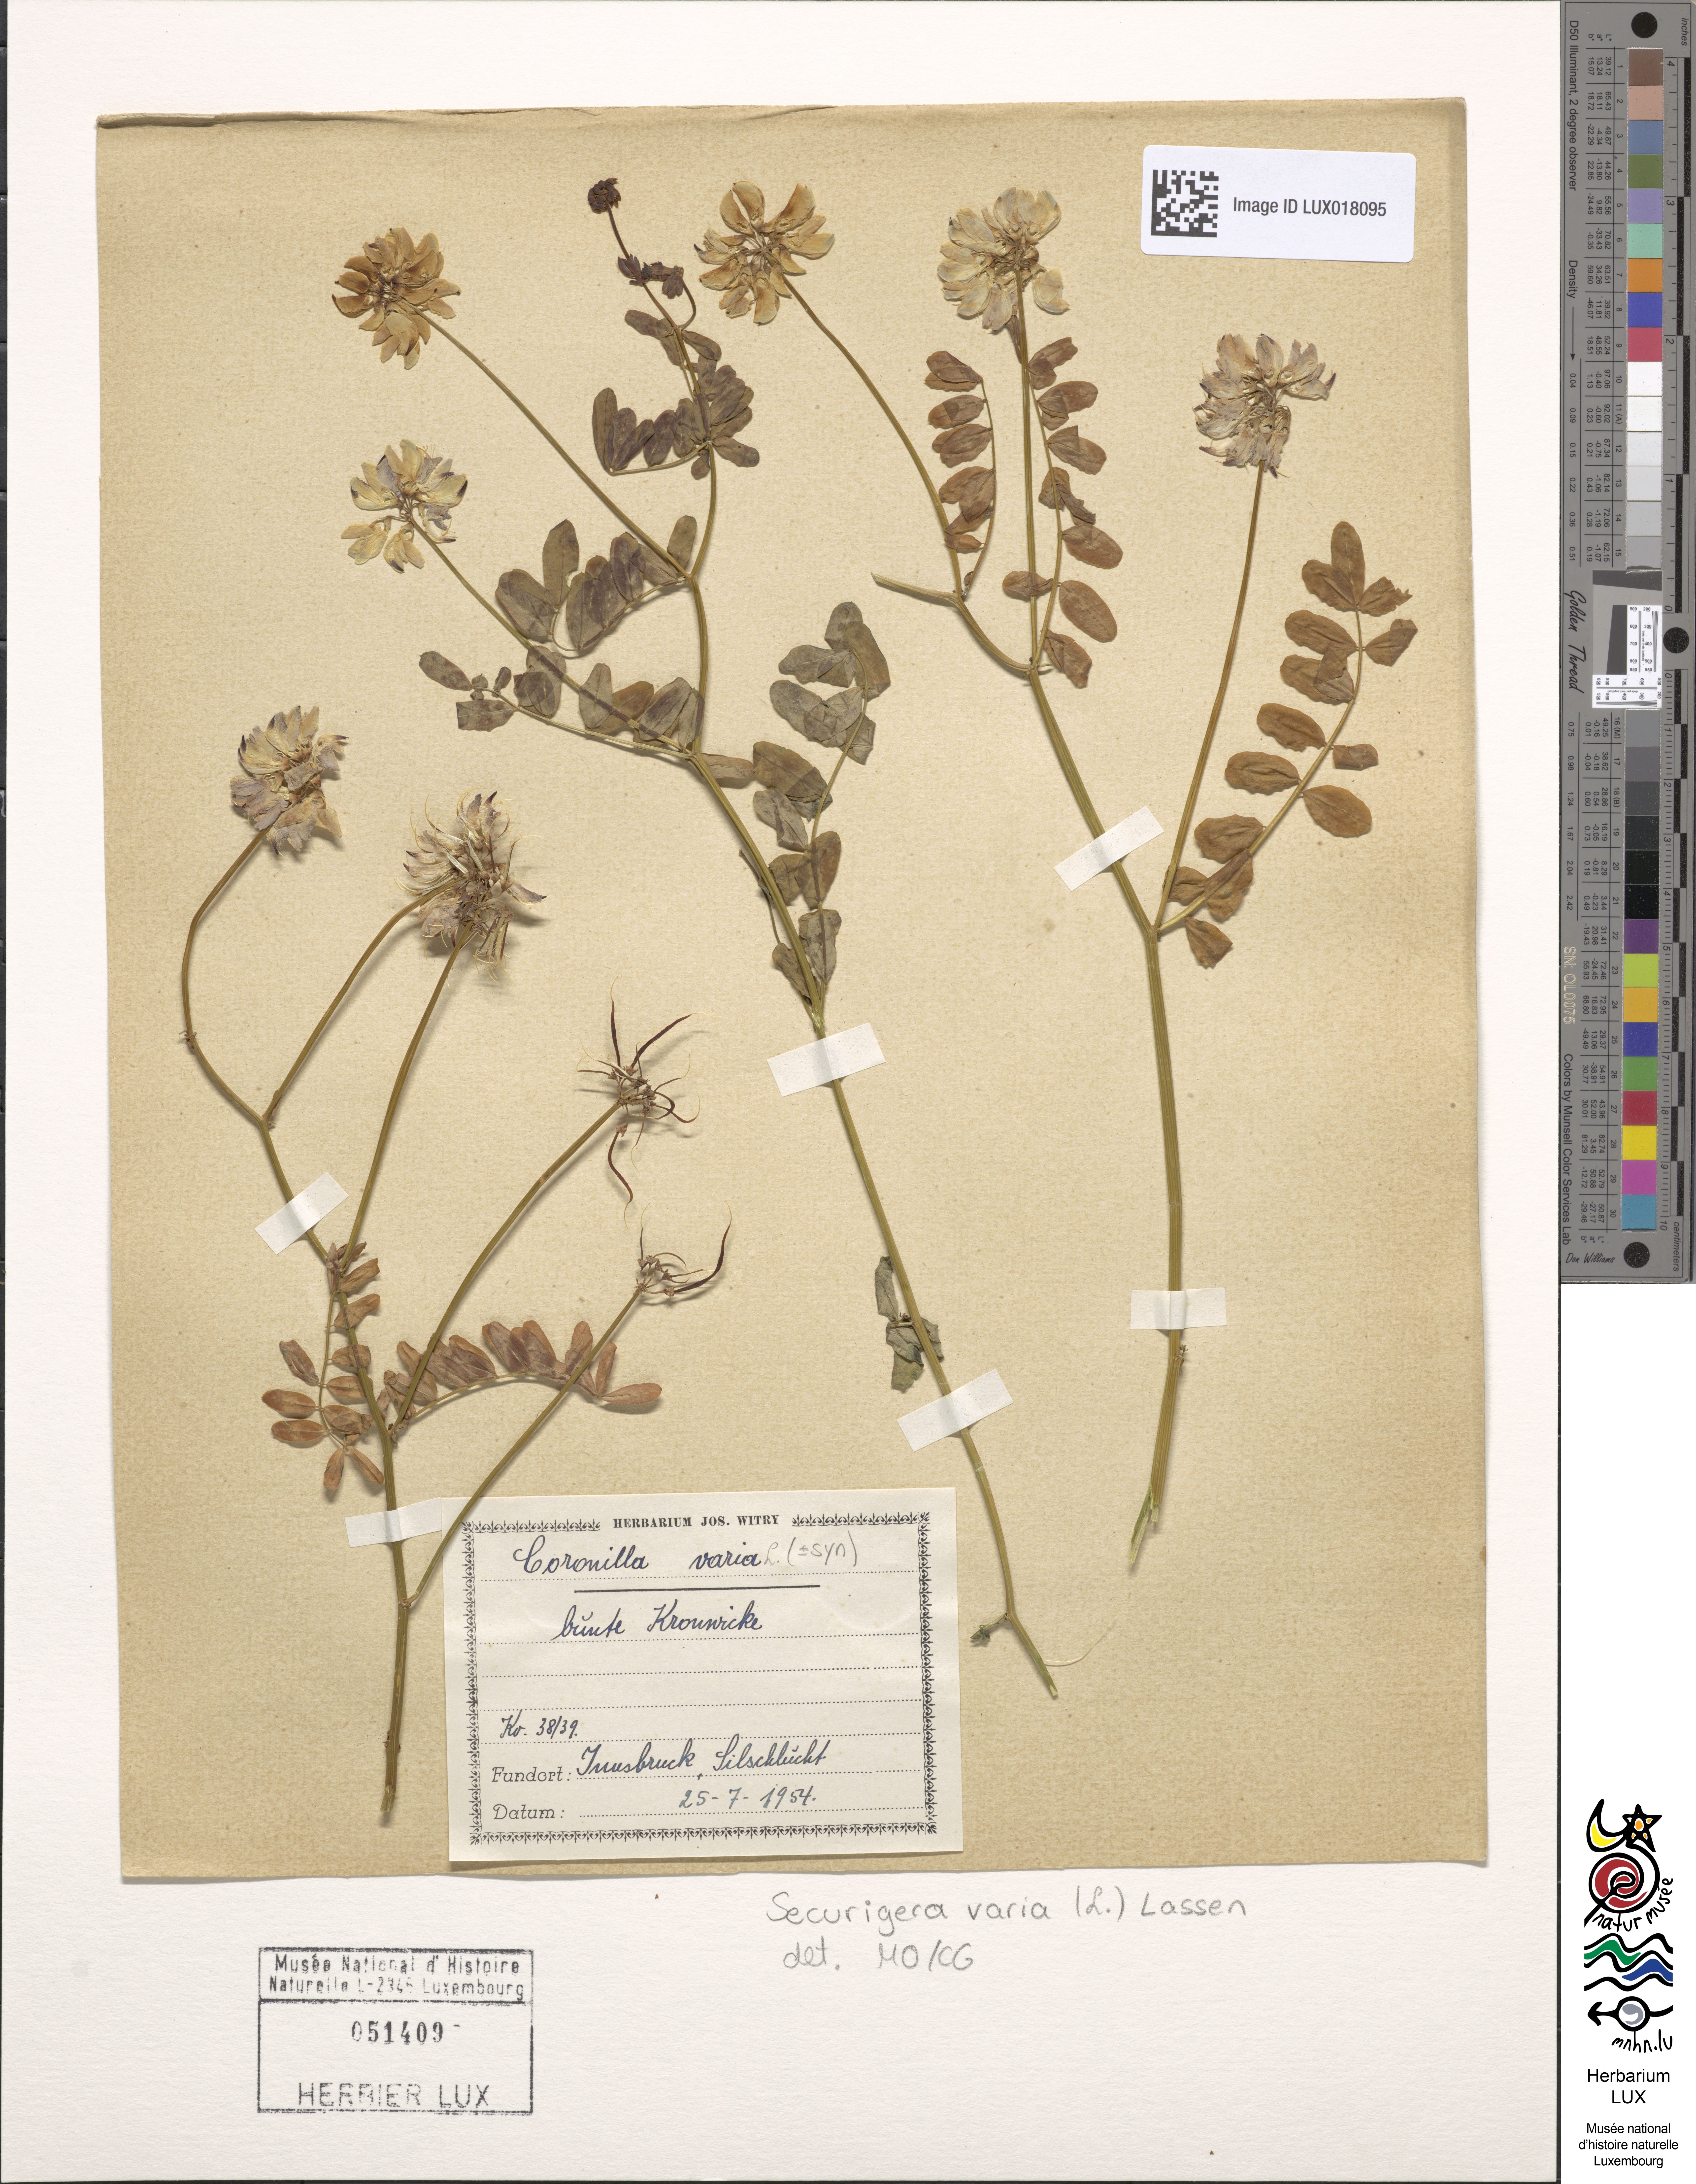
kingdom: Plantae
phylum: Tracheophyta
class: Magnoliopsida
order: Fabales
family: Fabaceae
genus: Coronilla
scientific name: Coronilla varia
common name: Crownvetch
